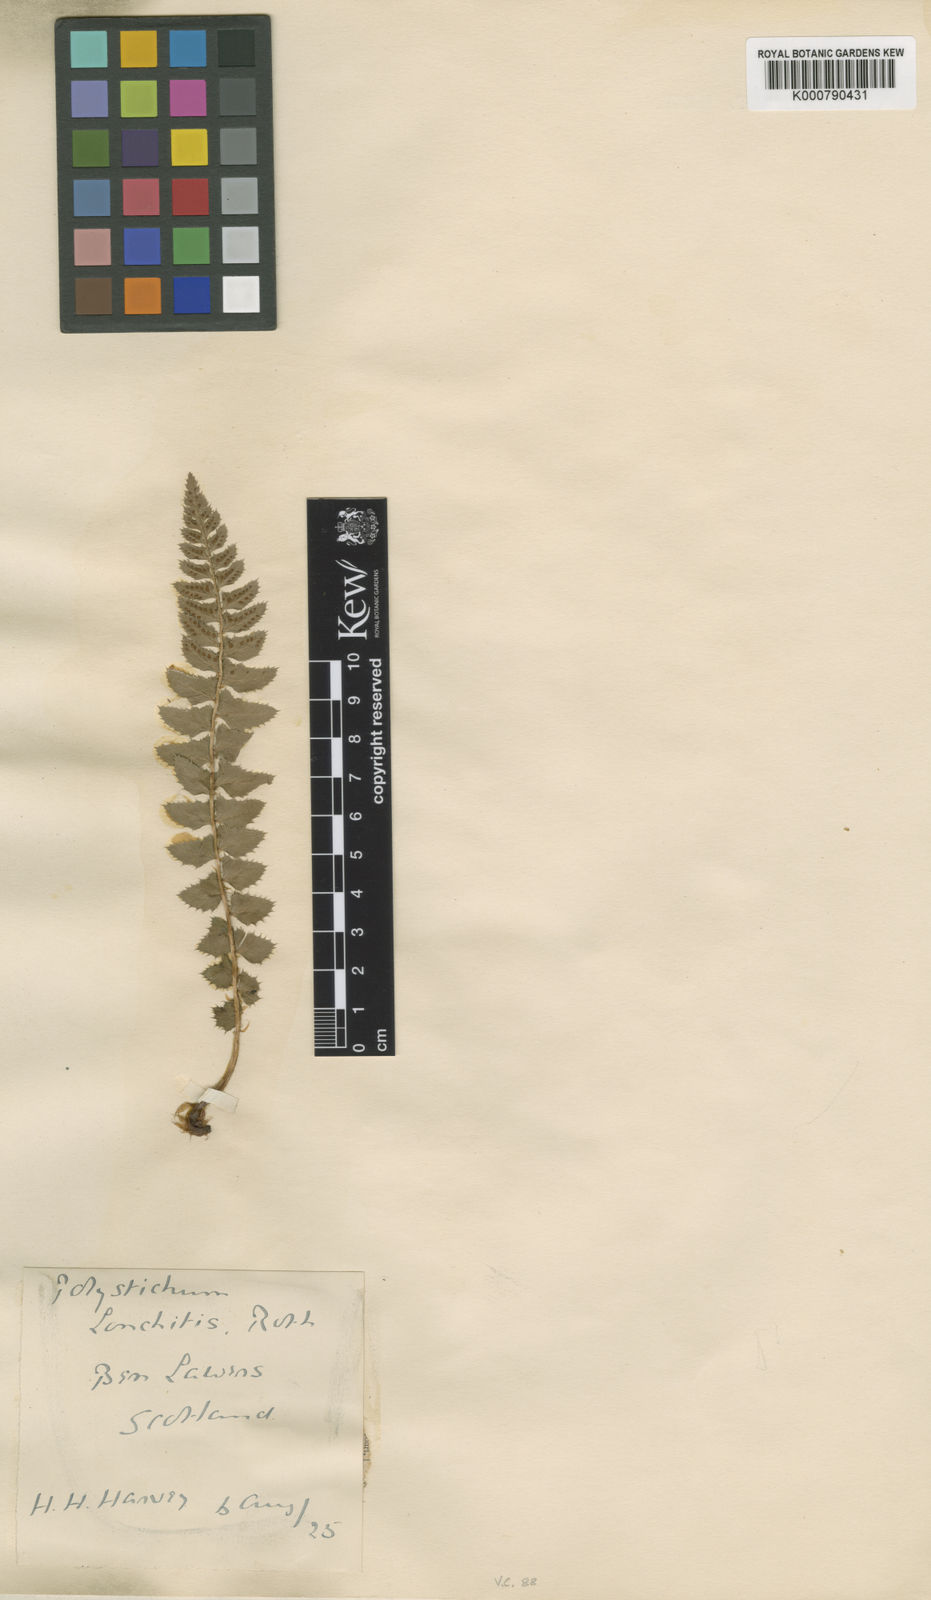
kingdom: Plantae
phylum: Tracheophyta
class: Polypodiopsida
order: Polypodiales
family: Dryopteridaceae
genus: Polystichum
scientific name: Polystichum
